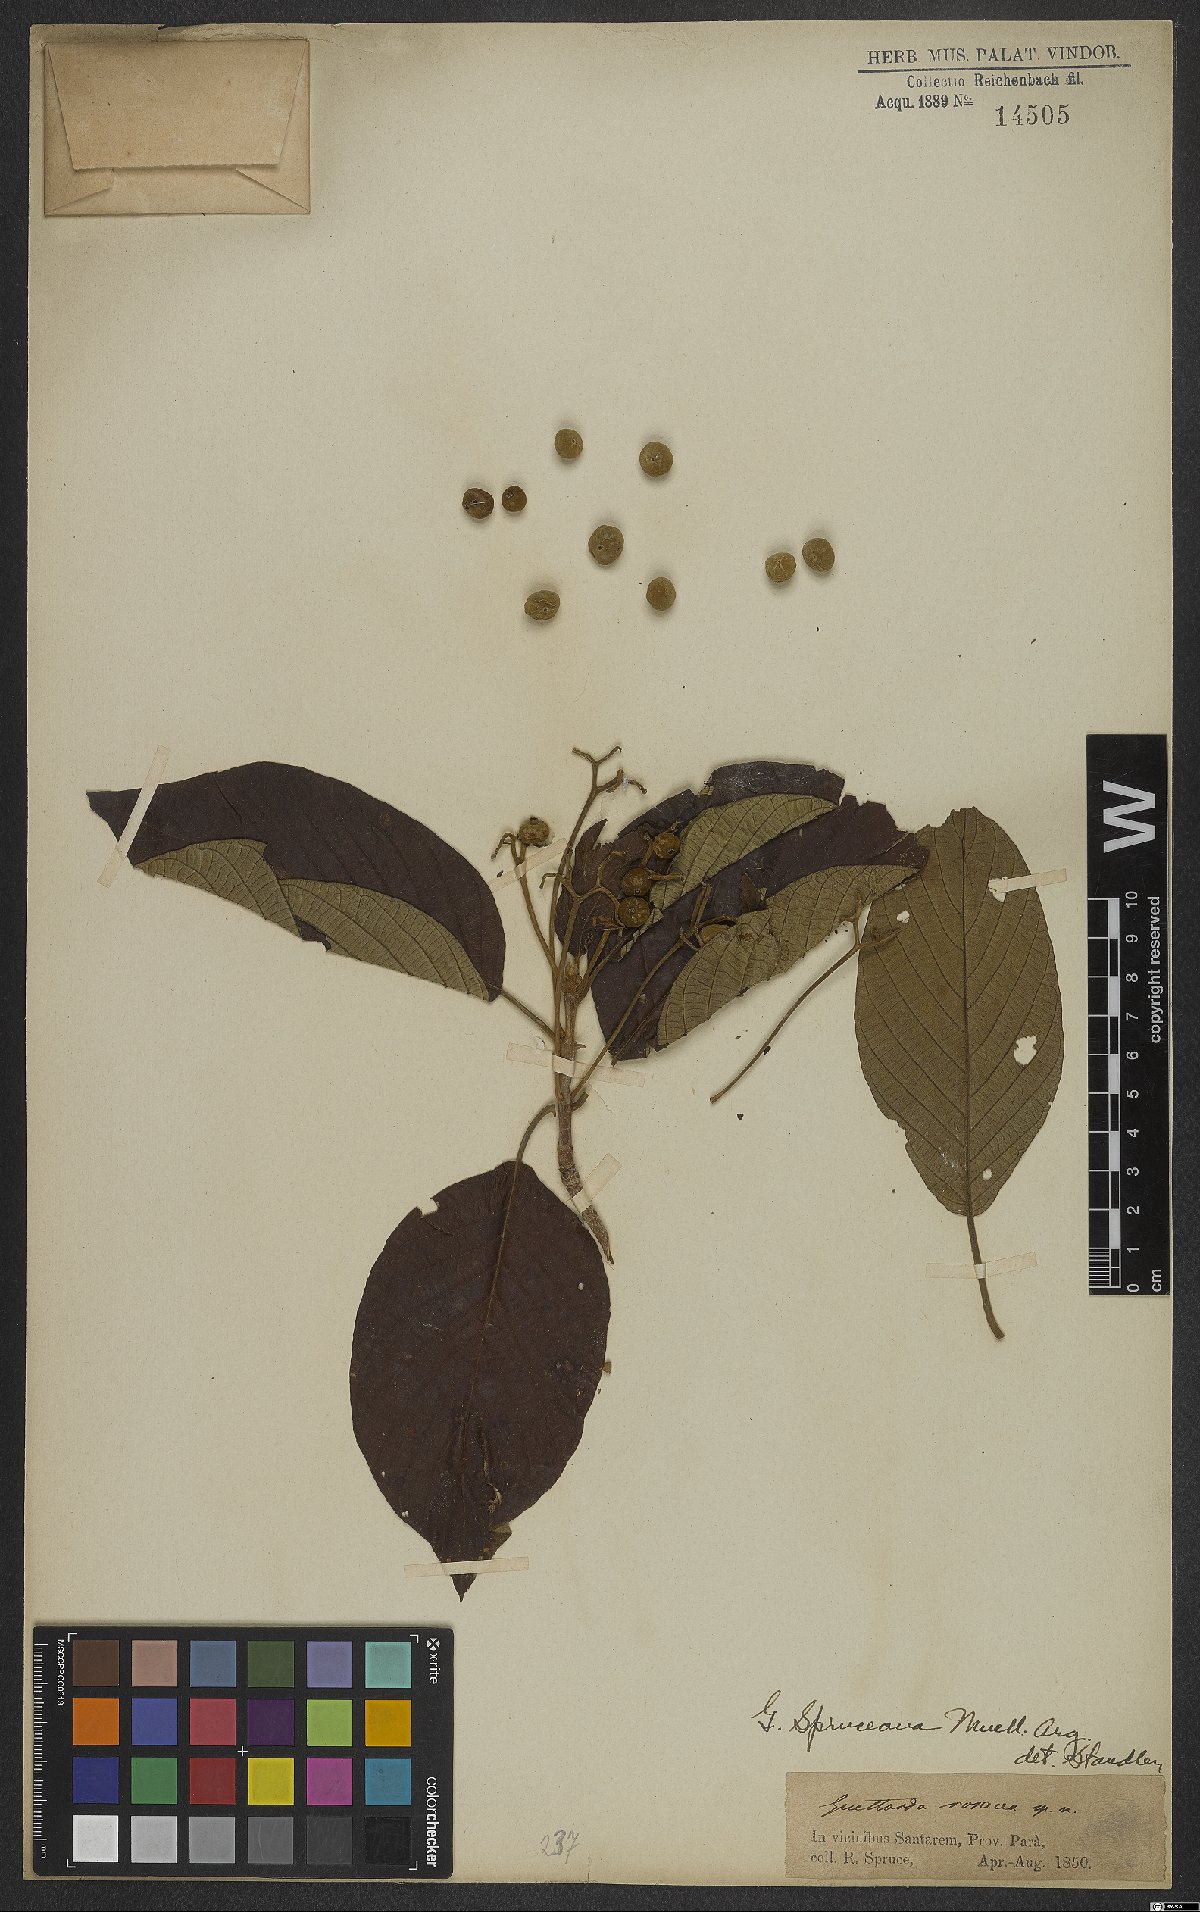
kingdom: Plantae
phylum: Tracheophyta
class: Magnoliopsida
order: Gentianales
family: Rubiaceae
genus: Guettarda
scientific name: Guettarda spruceana
